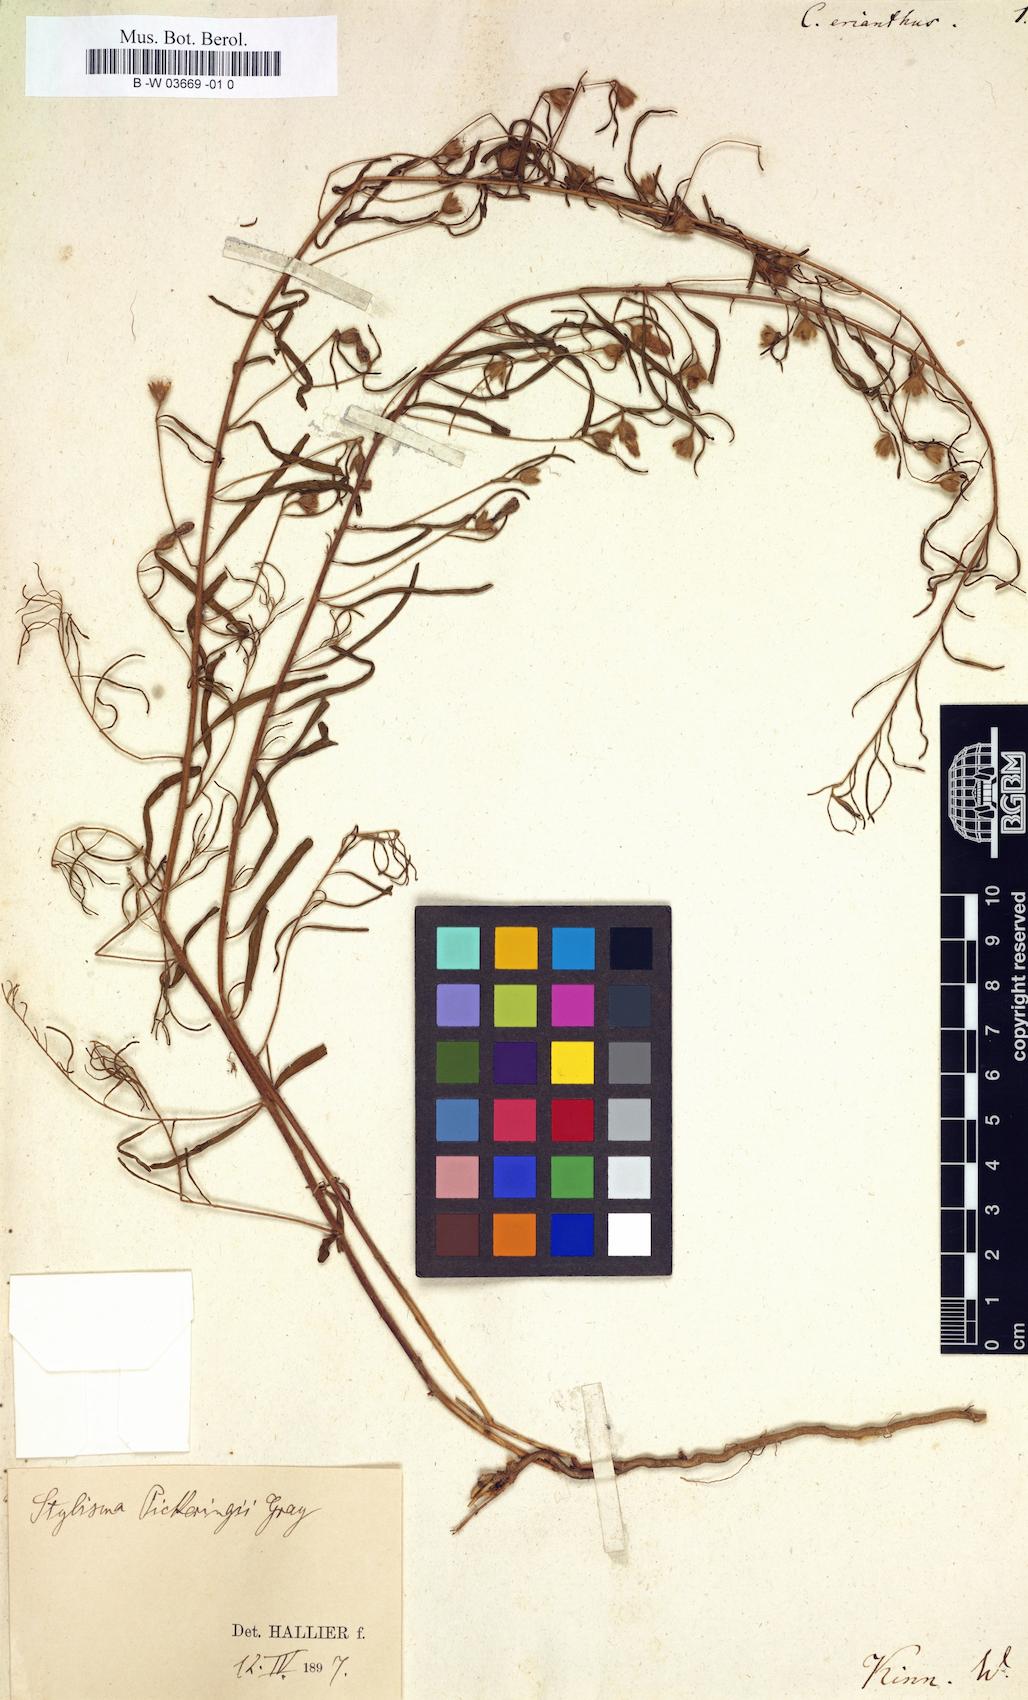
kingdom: Plantae
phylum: Tracheophyta
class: Magnoliopsida
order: Solanales
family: Convolvulaceae
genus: Stylisma
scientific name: Stylisma aquatica
